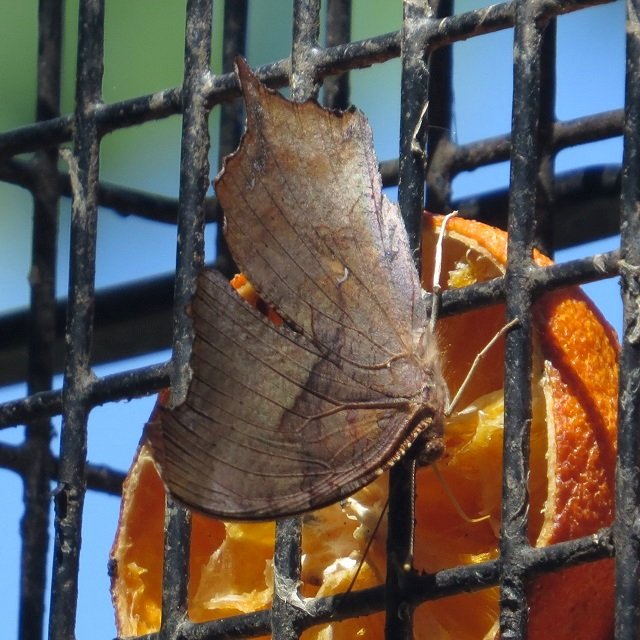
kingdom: Animalia
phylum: Arthropoda
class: Insecta
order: Lepidoptera
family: Nymphalidae
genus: Polygonia
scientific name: Polygonia interrogationis
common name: Question Mark
